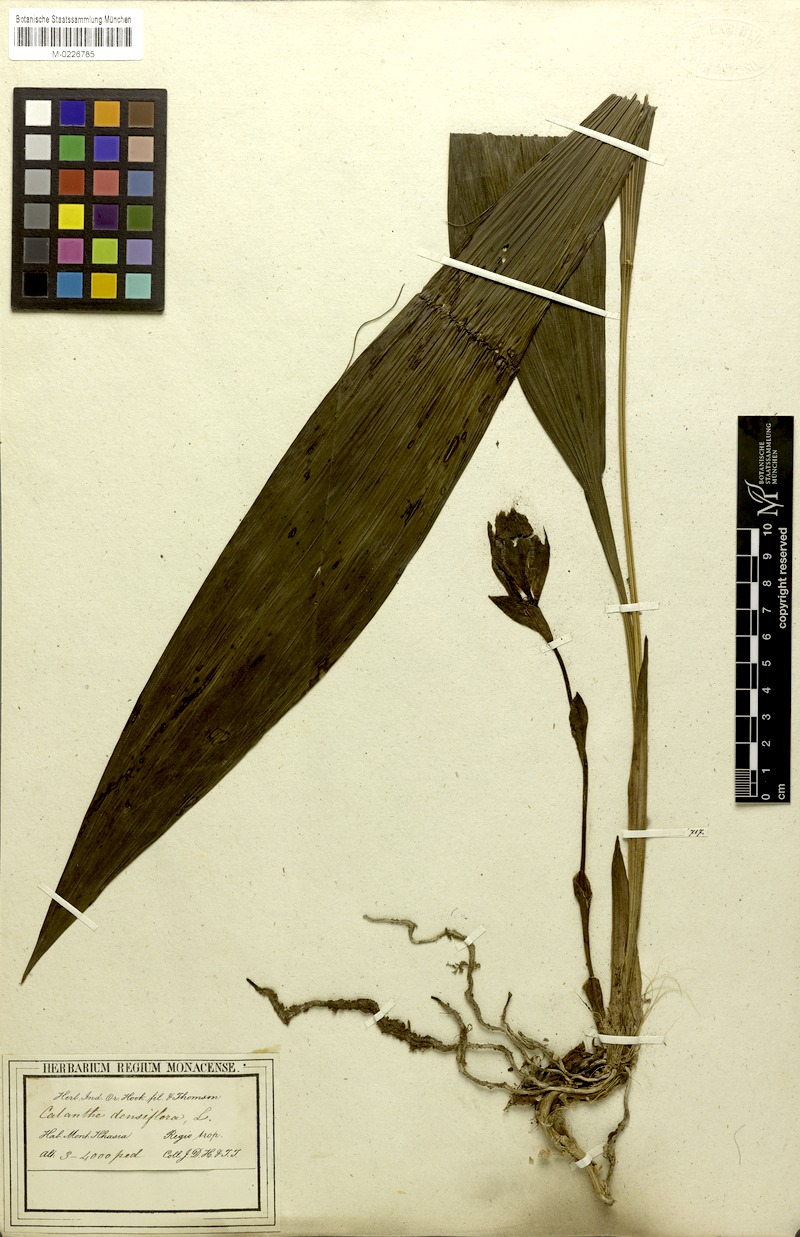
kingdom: Plantae
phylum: Tracheophyta
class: Liliopsida
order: Asparagales
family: Orchidaceae
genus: Calanthe
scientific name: Calanthe densiflora
